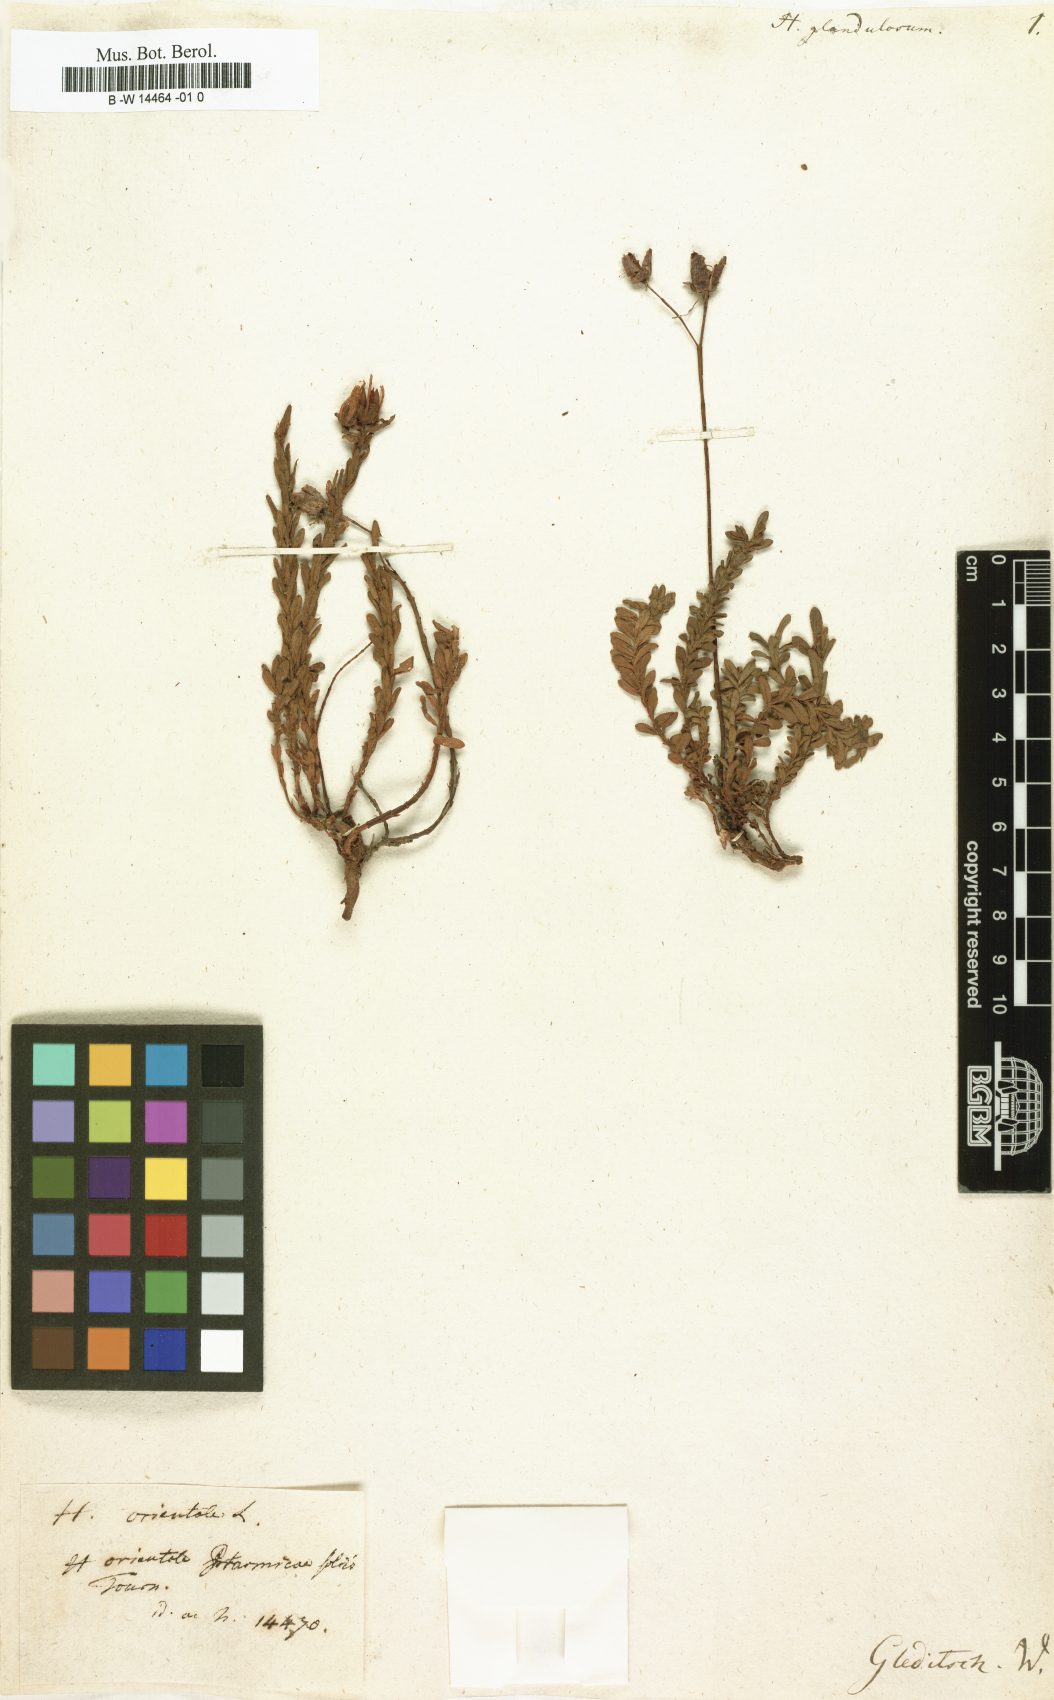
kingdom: Plantae
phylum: Tracheophyta
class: Magnoliopsida
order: Malpighiales
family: Hypericaceae
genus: Hypericum
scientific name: Hypericum glandulosum
